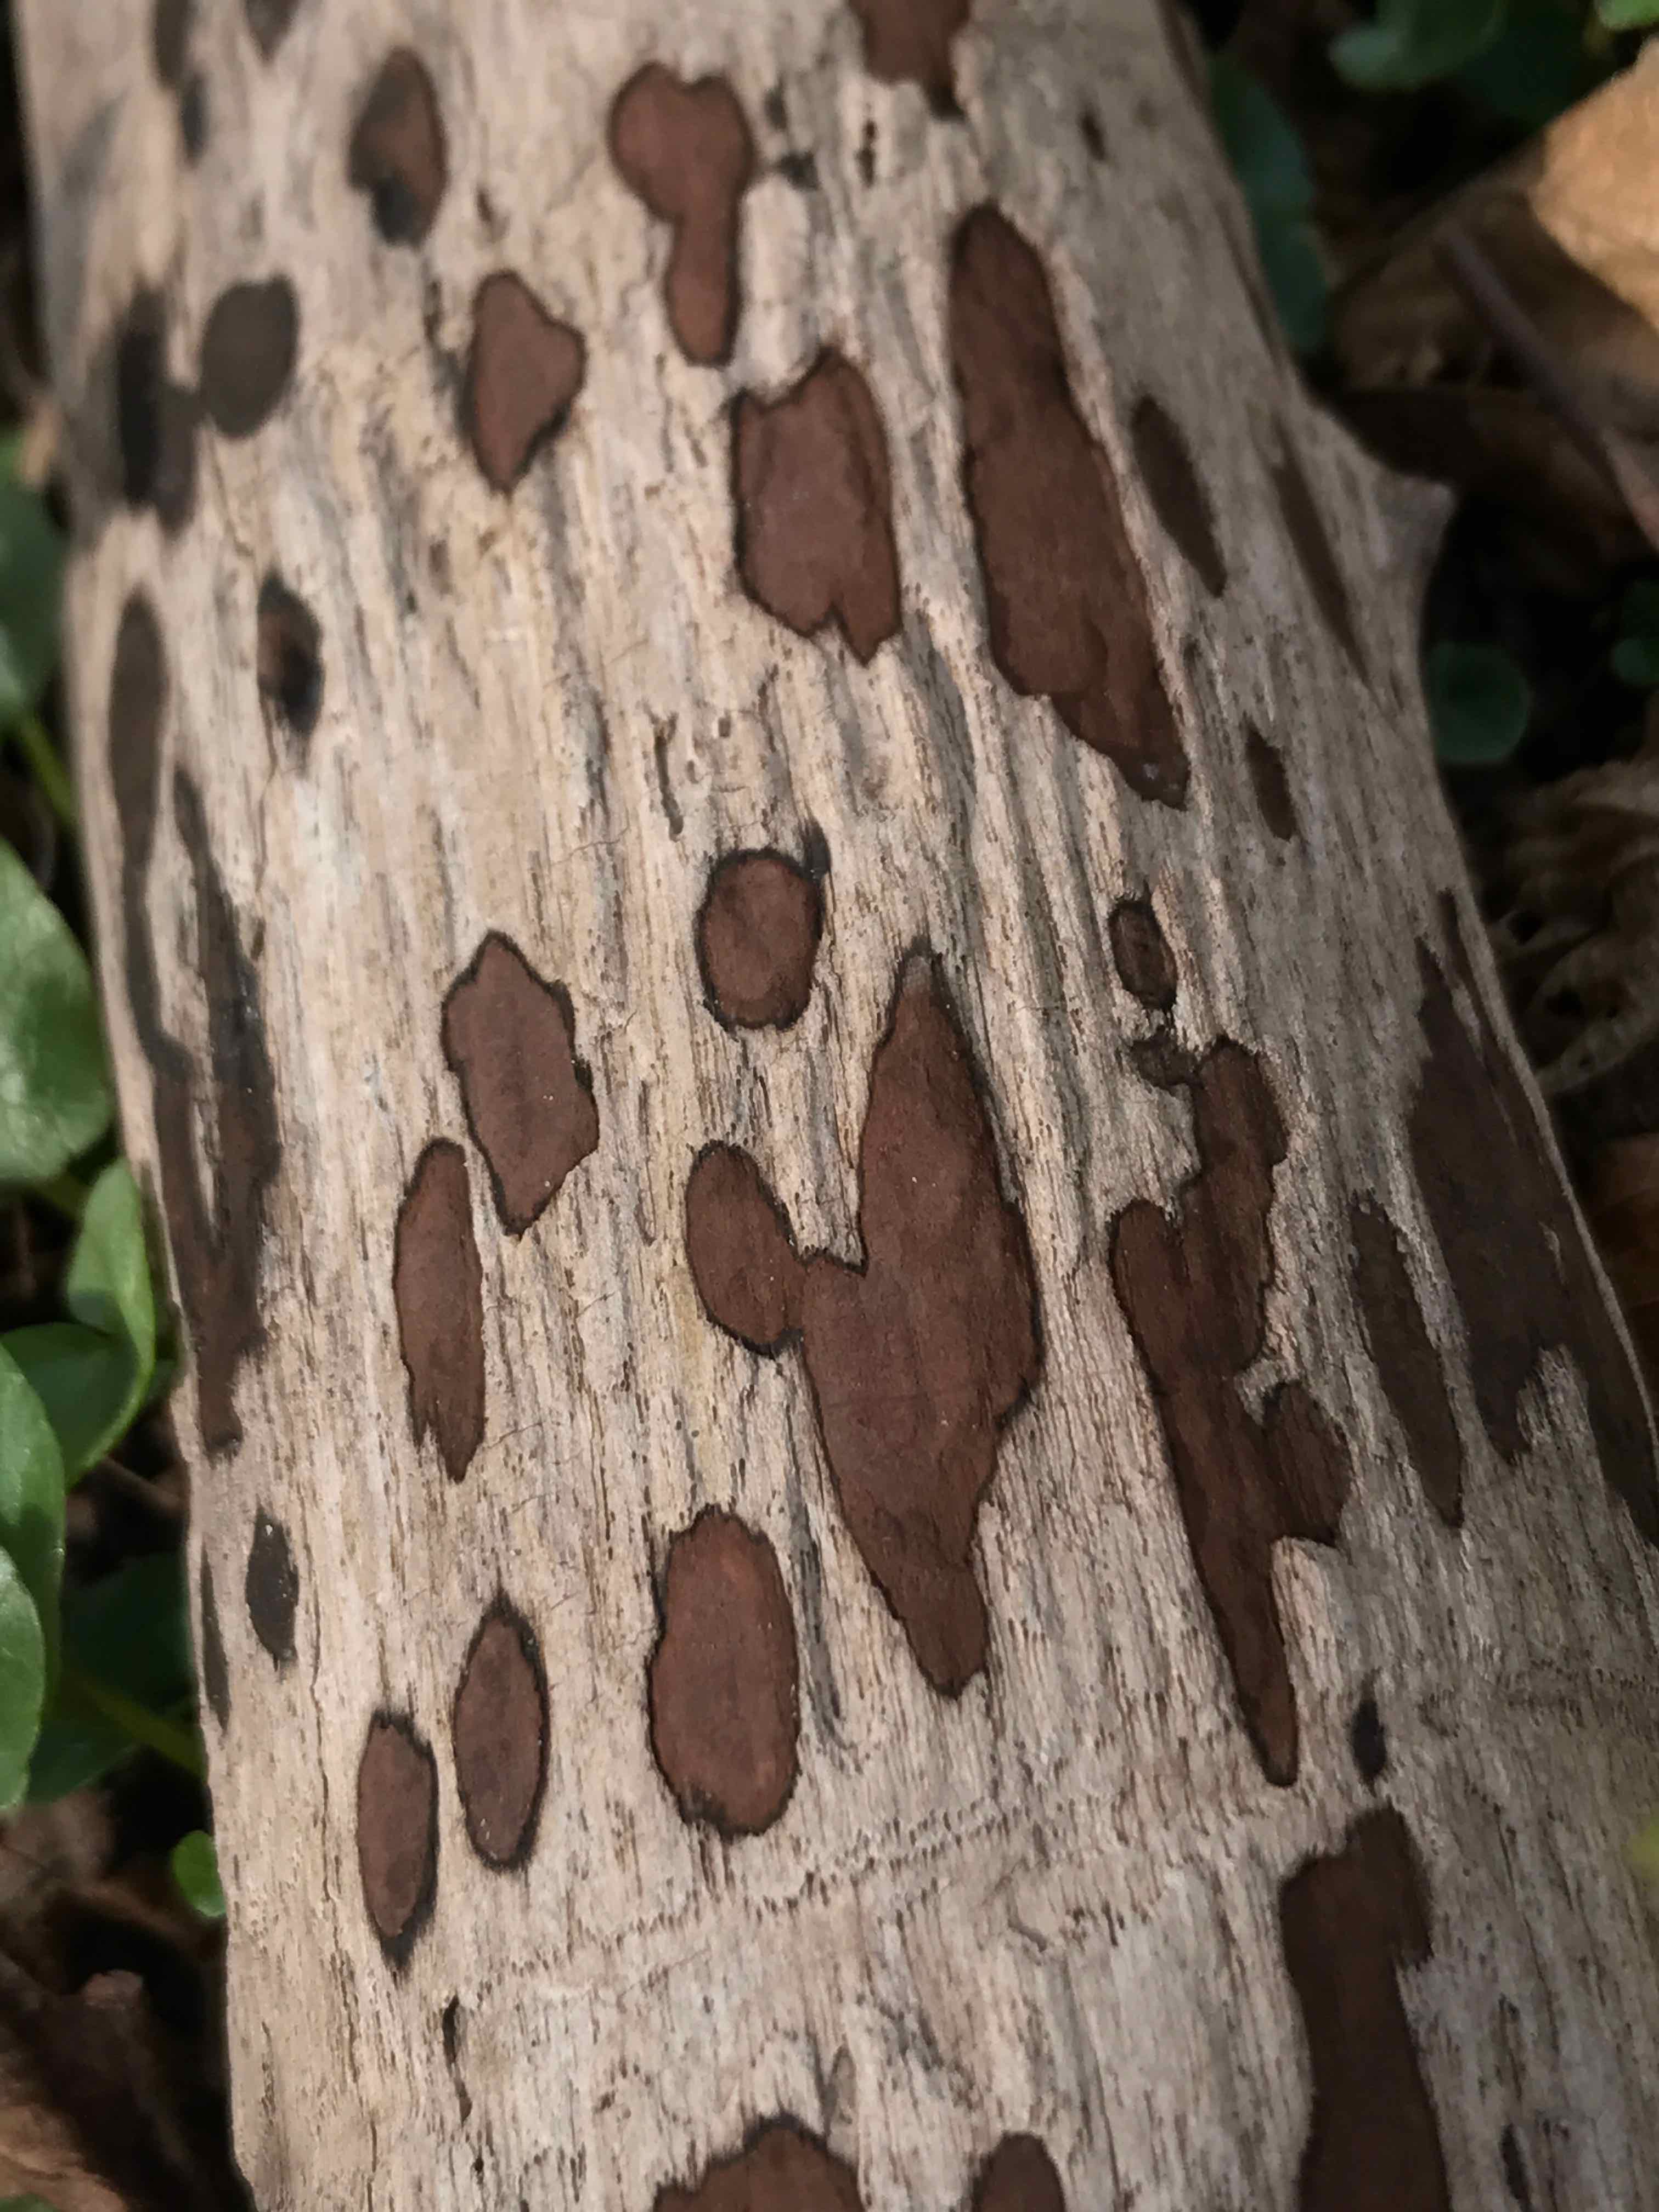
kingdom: Fungi
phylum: Ascomycota
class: Sordariomycetes
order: Xylariales
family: Hypoxylaceae
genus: Hypoxylon
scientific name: Hypoxylon petriniae
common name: nedsænket kulbær
